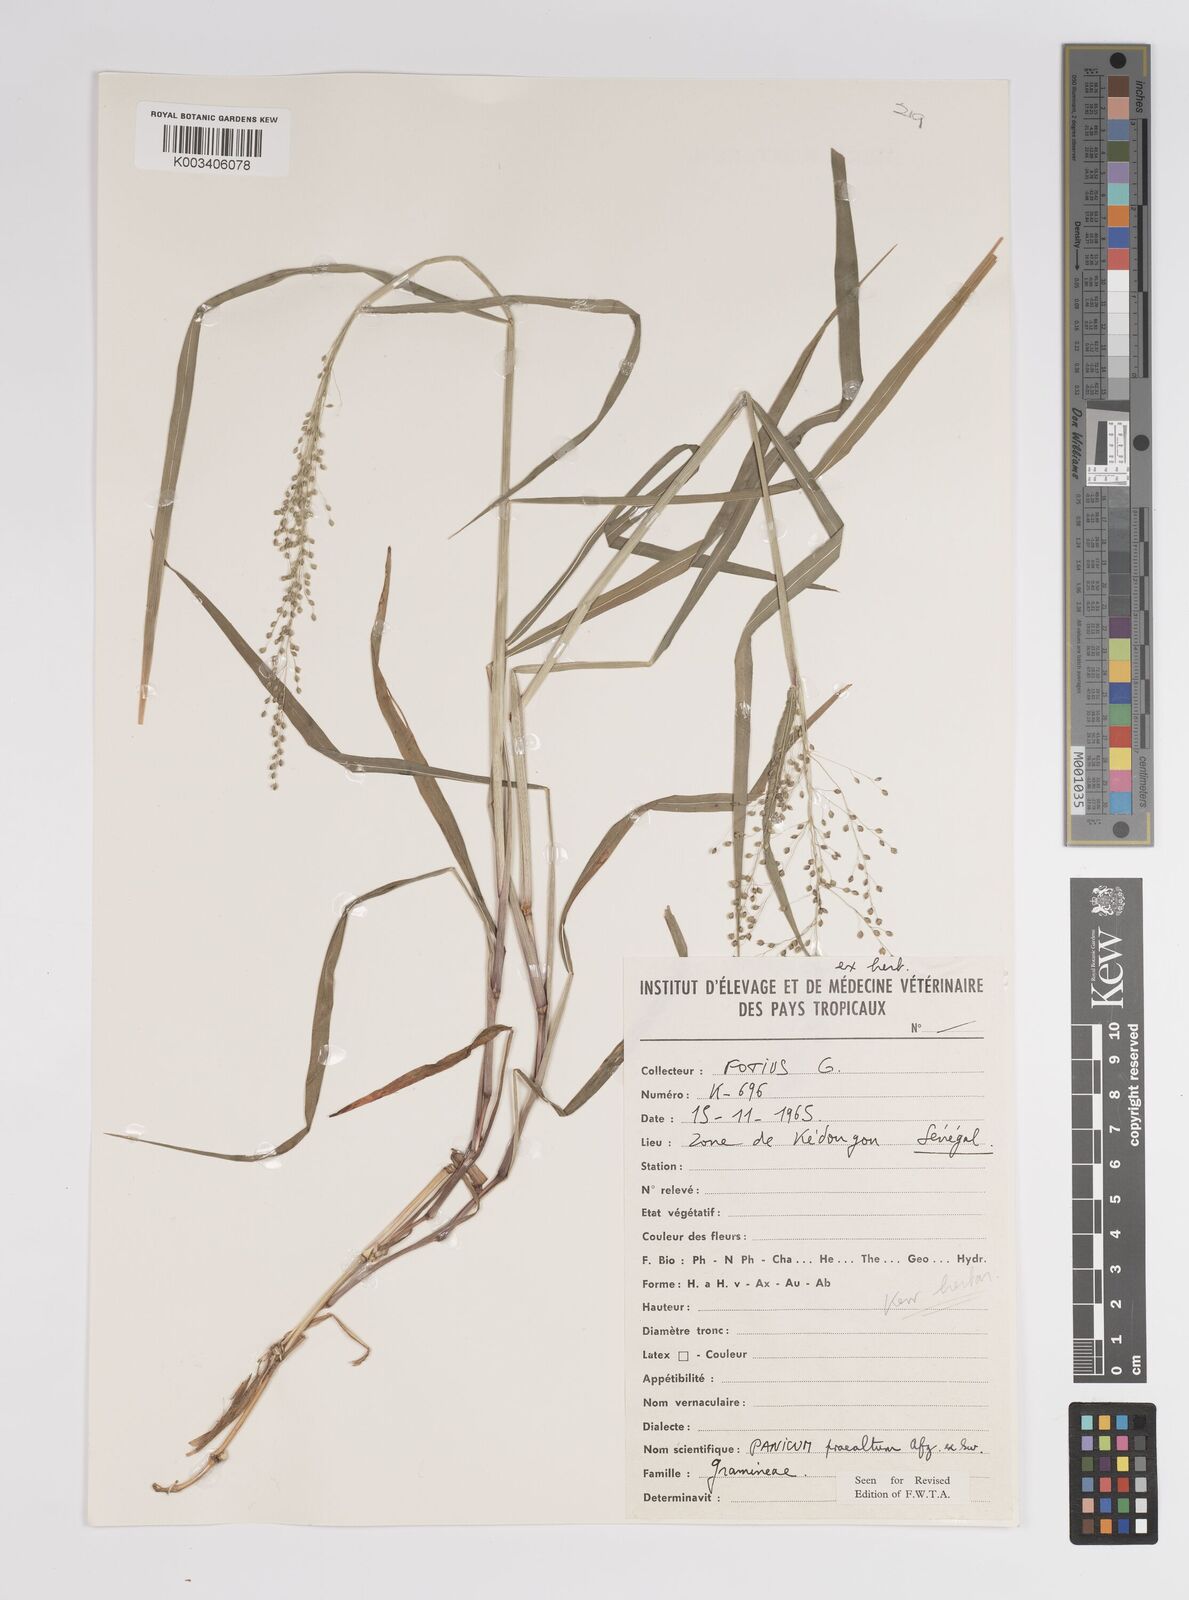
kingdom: Plantae
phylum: Tracheophyta
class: Liliopsida
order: Poales
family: Poaceae
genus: Trichanthecium
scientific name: Trichanthecium praealtum
